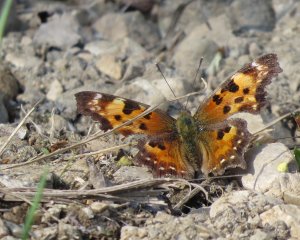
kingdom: Animalia
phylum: Arthropoda
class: Insecta
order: Lepidoptera
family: Nymphalidae
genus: Polygonia
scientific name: Polygonia faunus
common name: Green Comma
